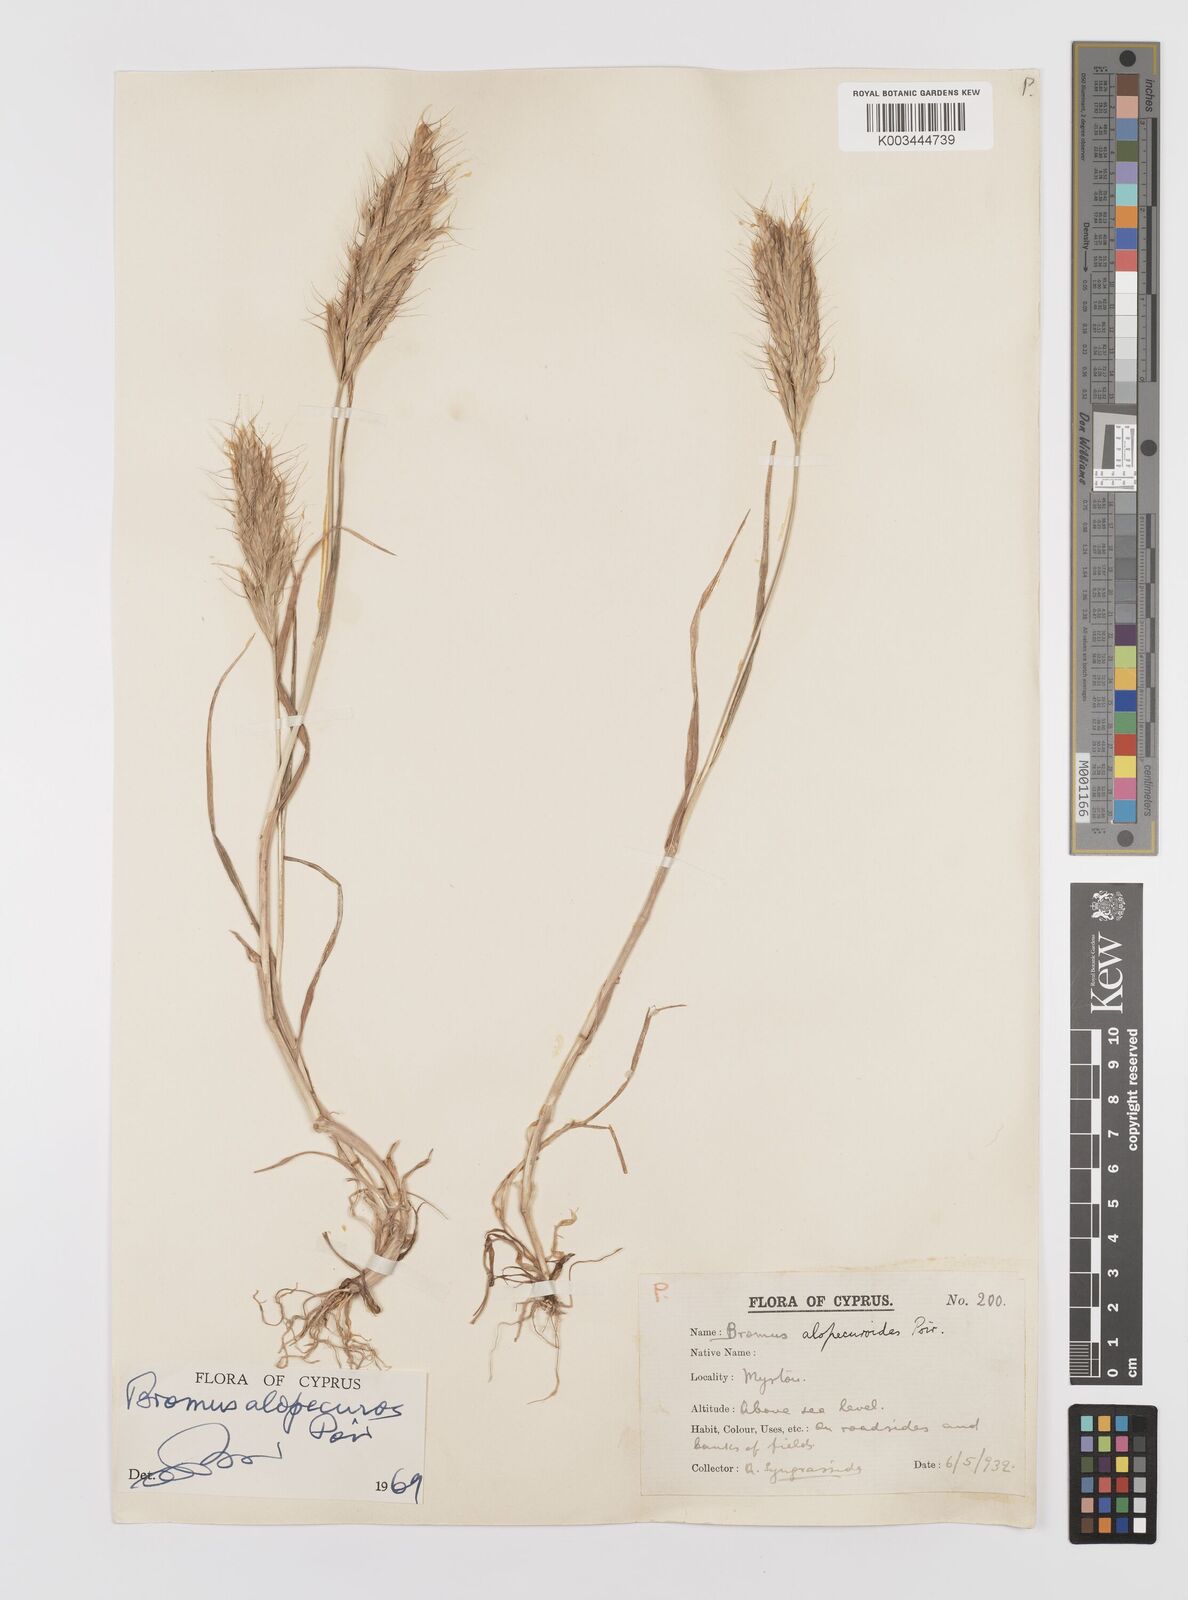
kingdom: Plantae
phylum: Tracheophyta
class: Liliopsida
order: Poales
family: Poaceae
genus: Bromus
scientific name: Bromus alopecuros
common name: Weedy brome
